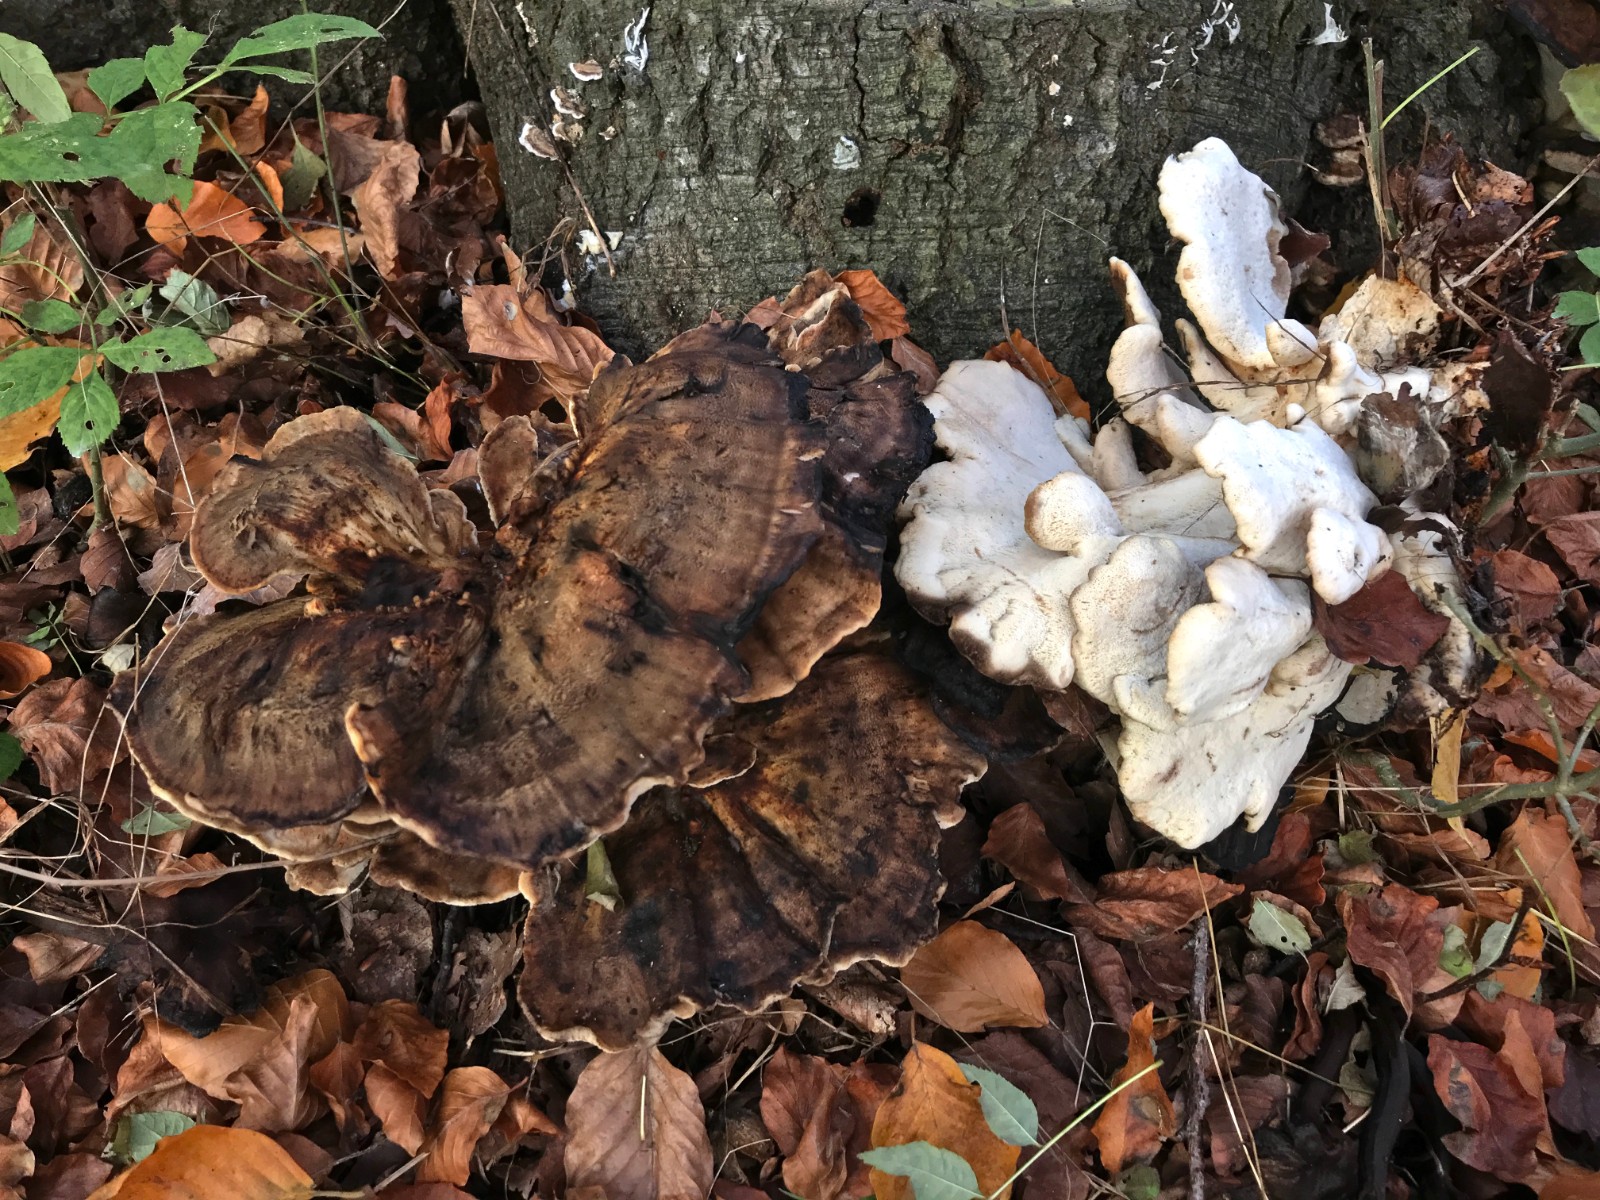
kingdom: Fungi
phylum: Basidiomycota
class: Agaricomycetes
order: Polyporales
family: Meripilaceae
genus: Meripilus
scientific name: Meripilus giganteus
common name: kæmpeporesvamp
